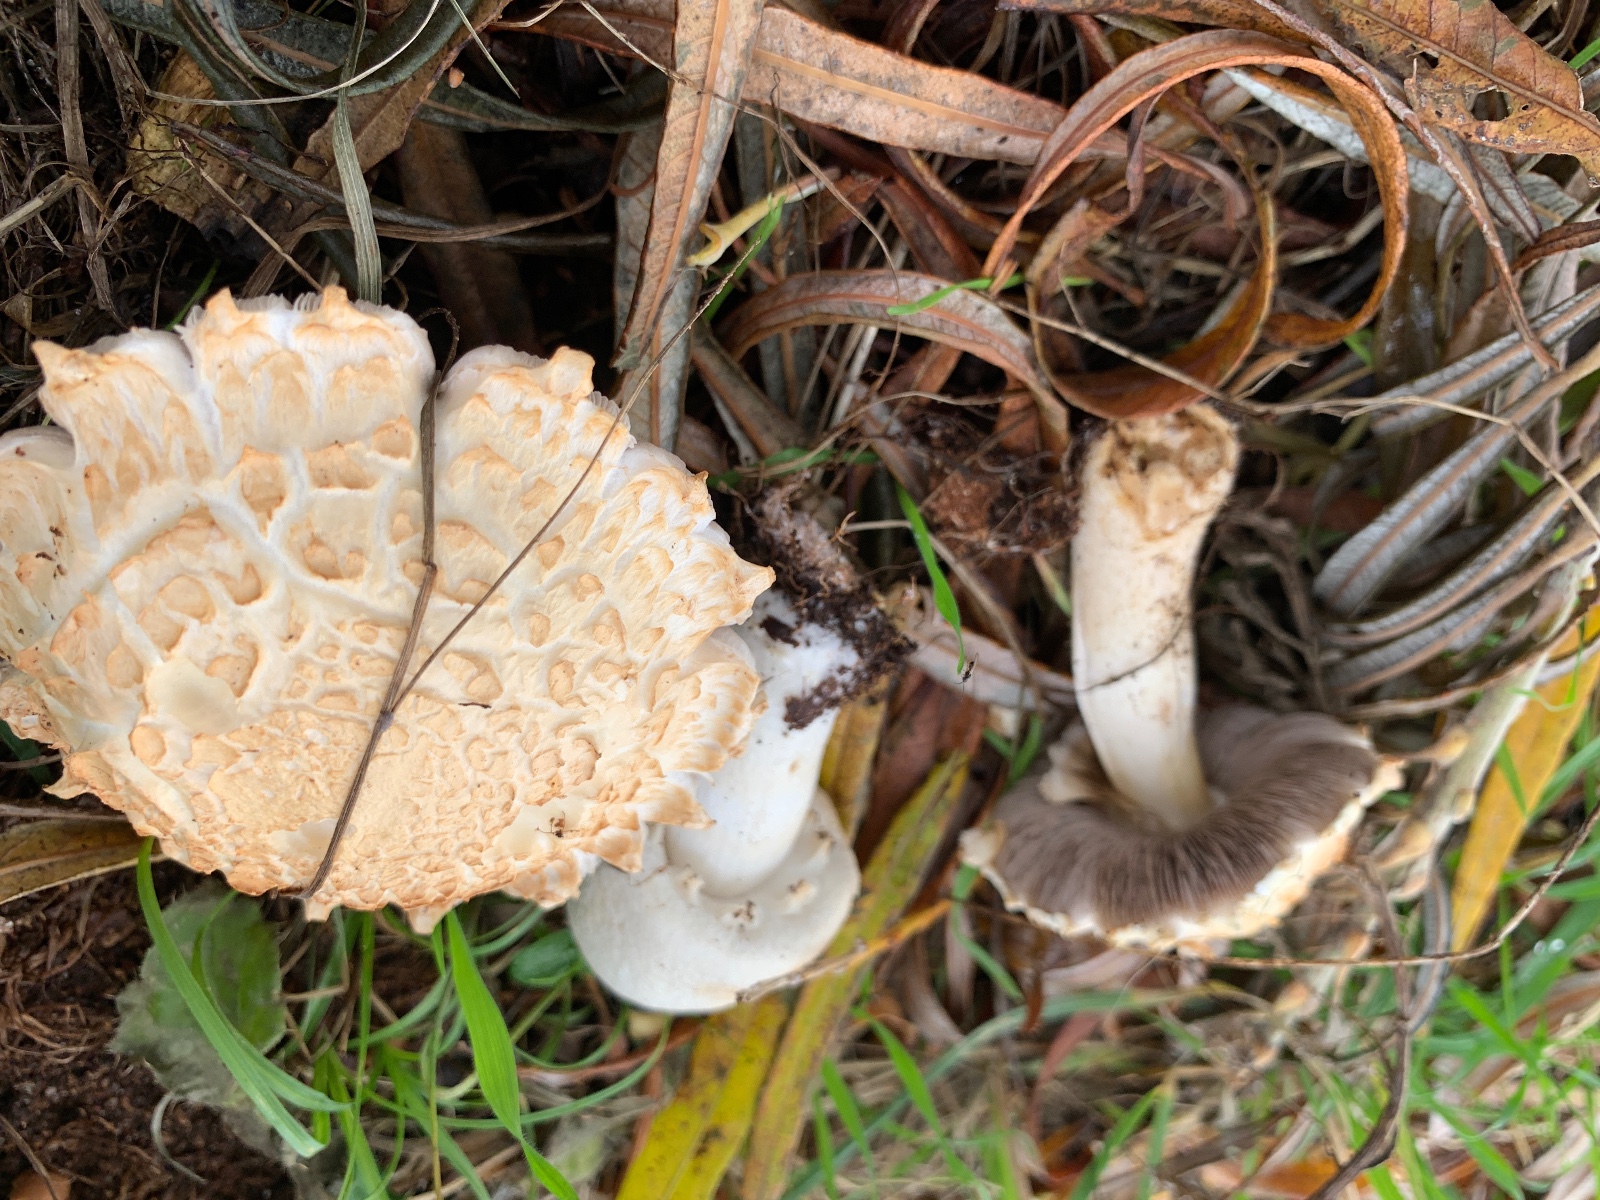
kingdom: Fungi
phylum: Basidiomycota
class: Agaricomycetes
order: Agaricales
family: Agaricaceae
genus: Agaricus
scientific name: Agaricus
